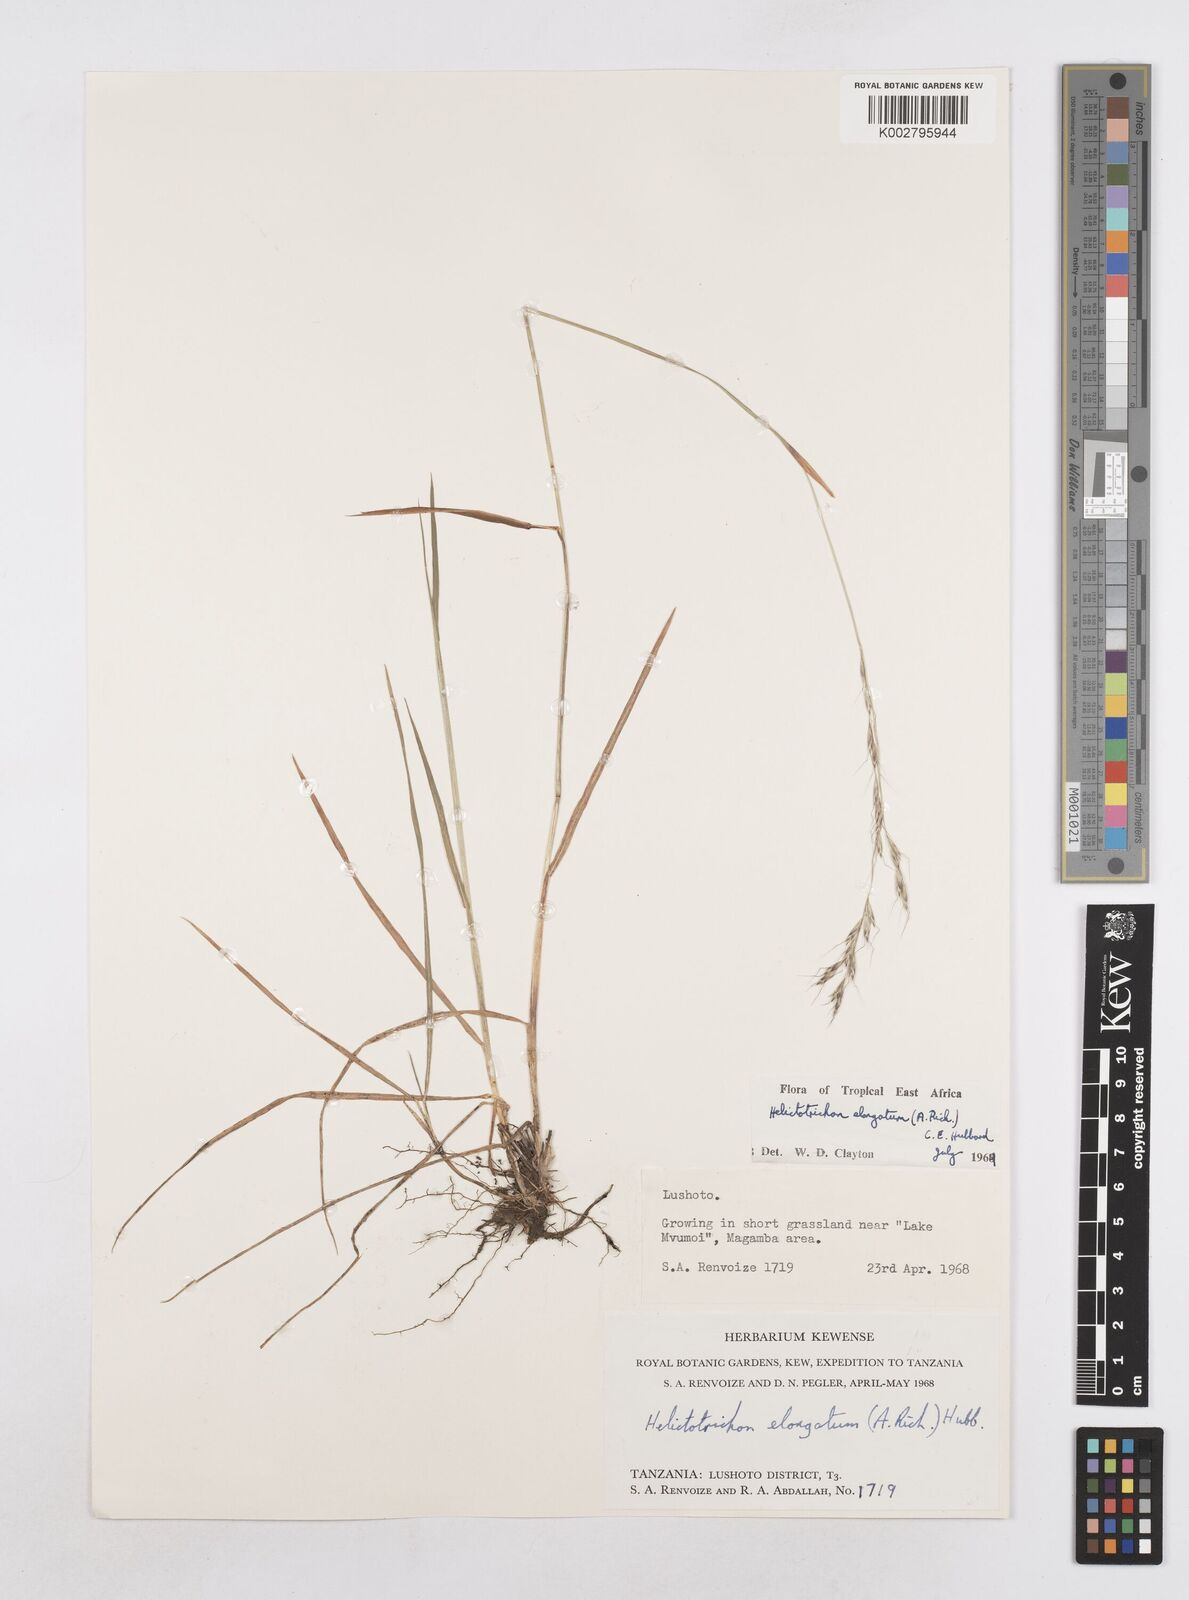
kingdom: Plantae
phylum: Tracheophyta
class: Liliopsida
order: Poales
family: Poaceae
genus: Trisetopsis
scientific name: Trisetopsis elongata
